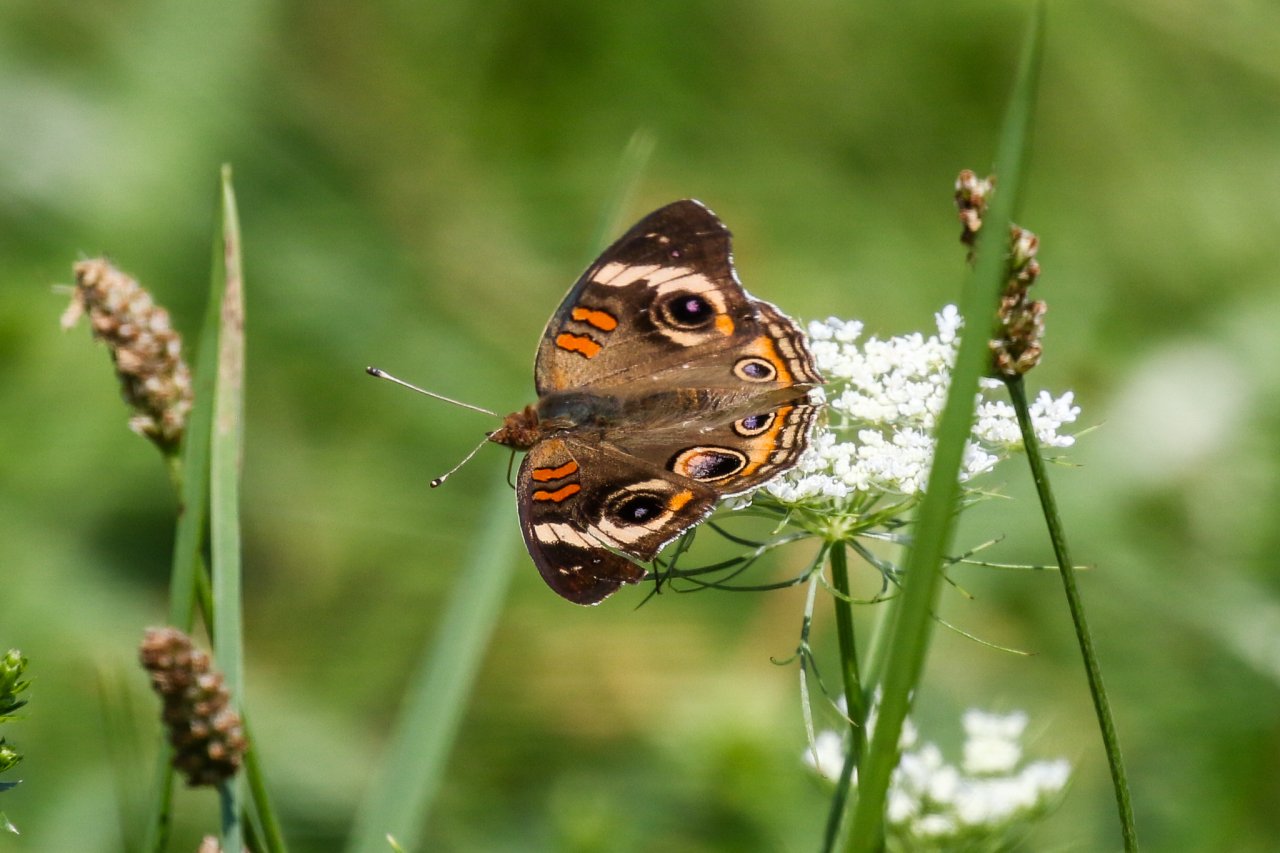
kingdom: Animalia
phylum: Arthropoda
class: Insecta
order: Lepidoptera
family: Nymphalidae
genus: Junonia
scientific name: Junonia coenia
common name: Common Buckeye
